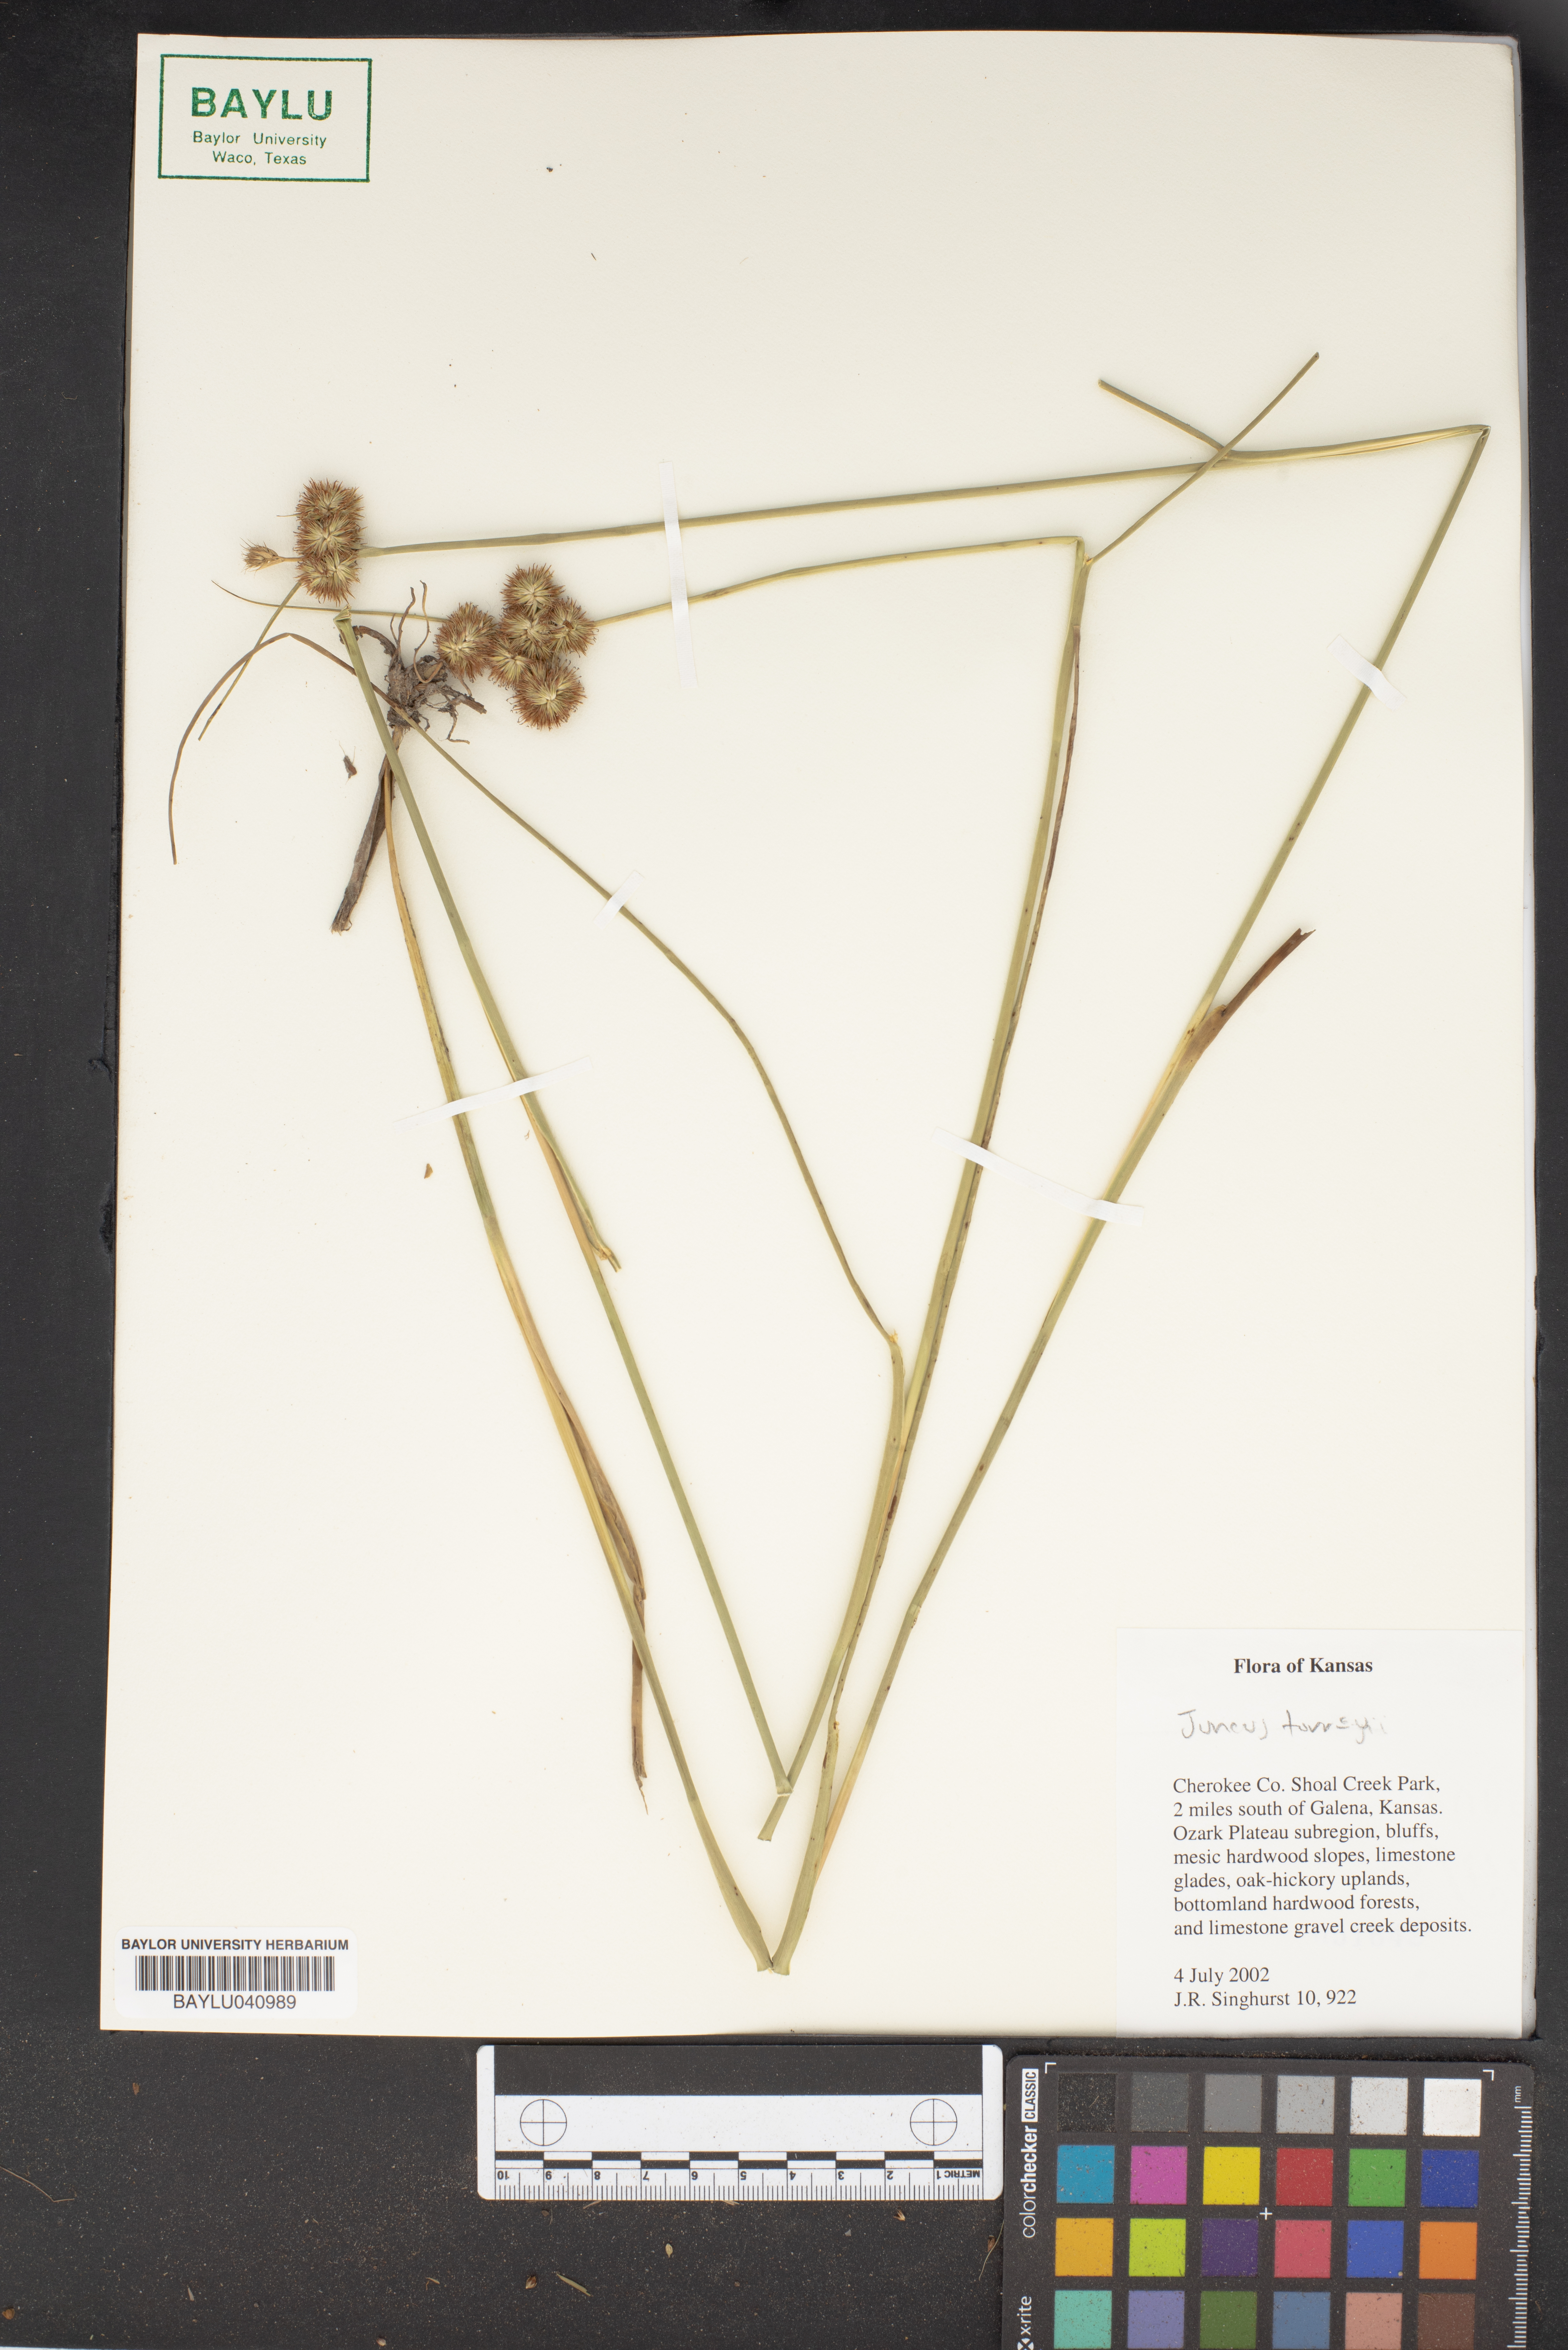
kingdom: Plantae
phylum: Tracheophyta
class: Liliopsida
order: Poales
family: Juncaceae
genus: Juncus
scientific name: Juncus torreyi
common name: Torrey's rush
